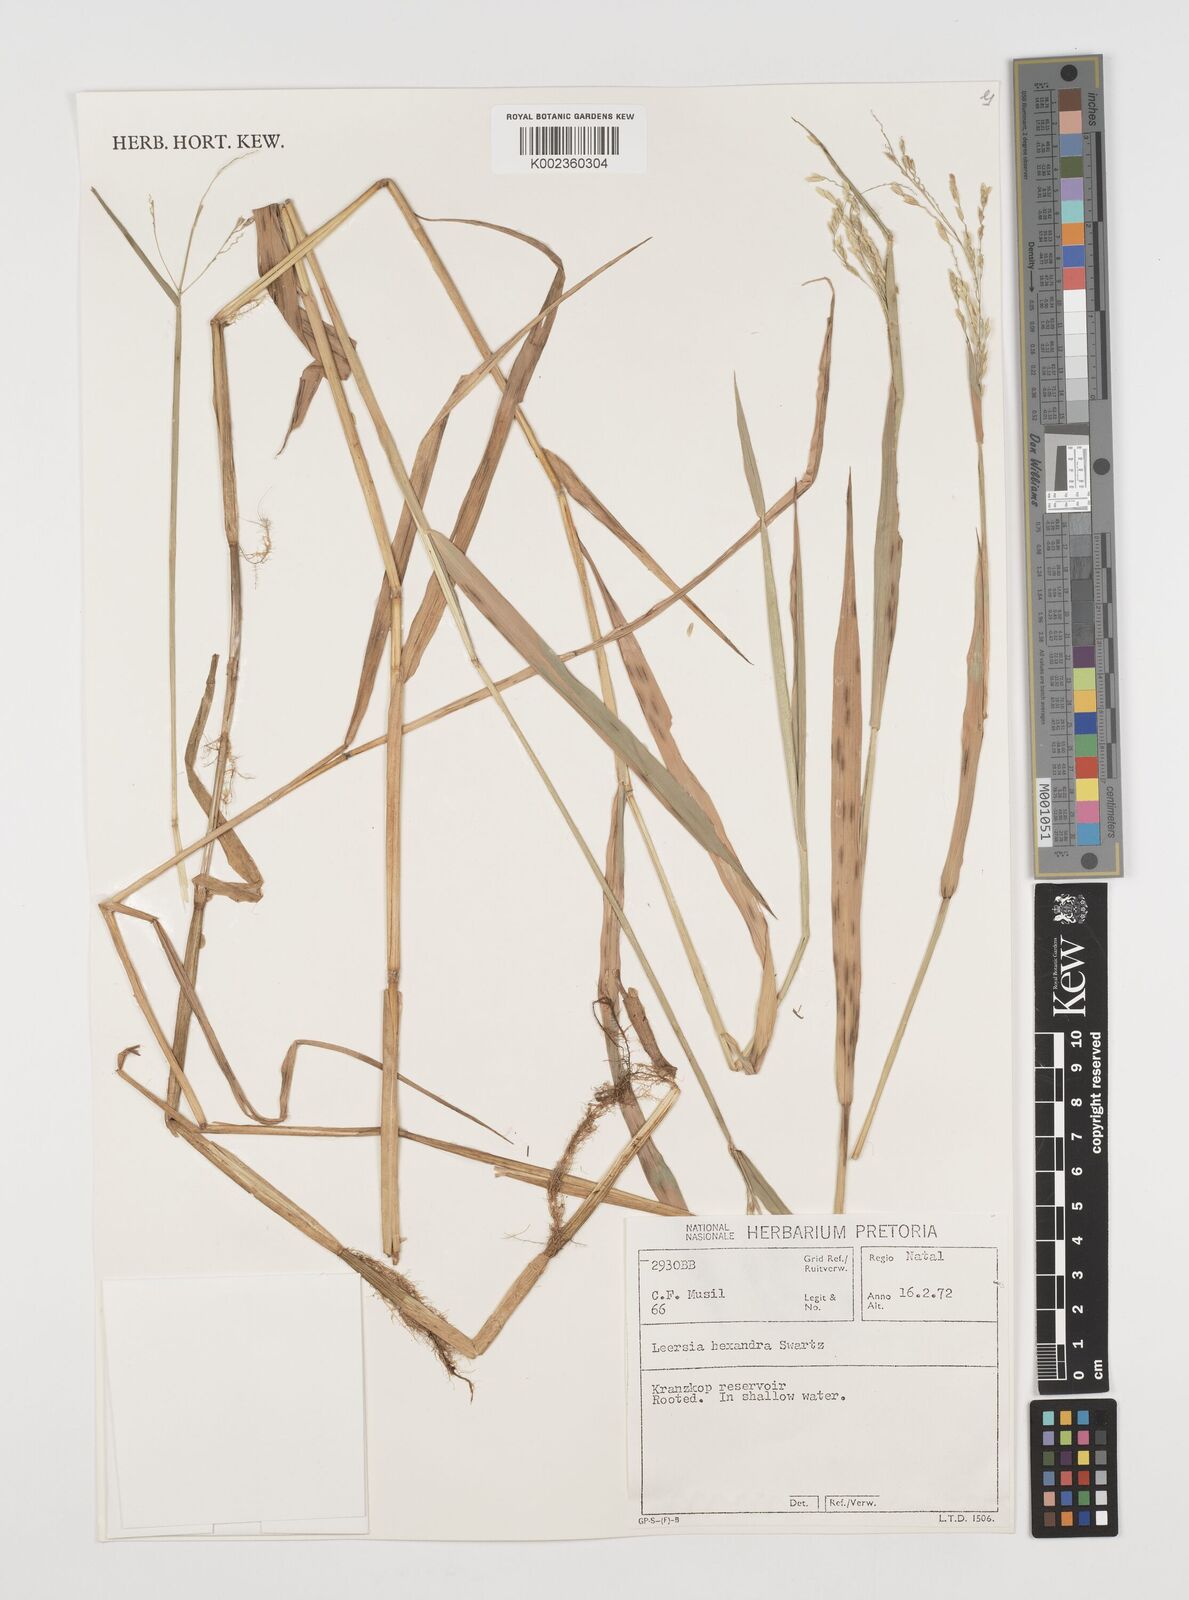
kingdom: Plantae
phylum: Tracheophyta
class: Liliopsida
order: Poales
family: Poaceae
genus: Leersia
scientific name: Leersia hexandra
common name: Southern cut grass
